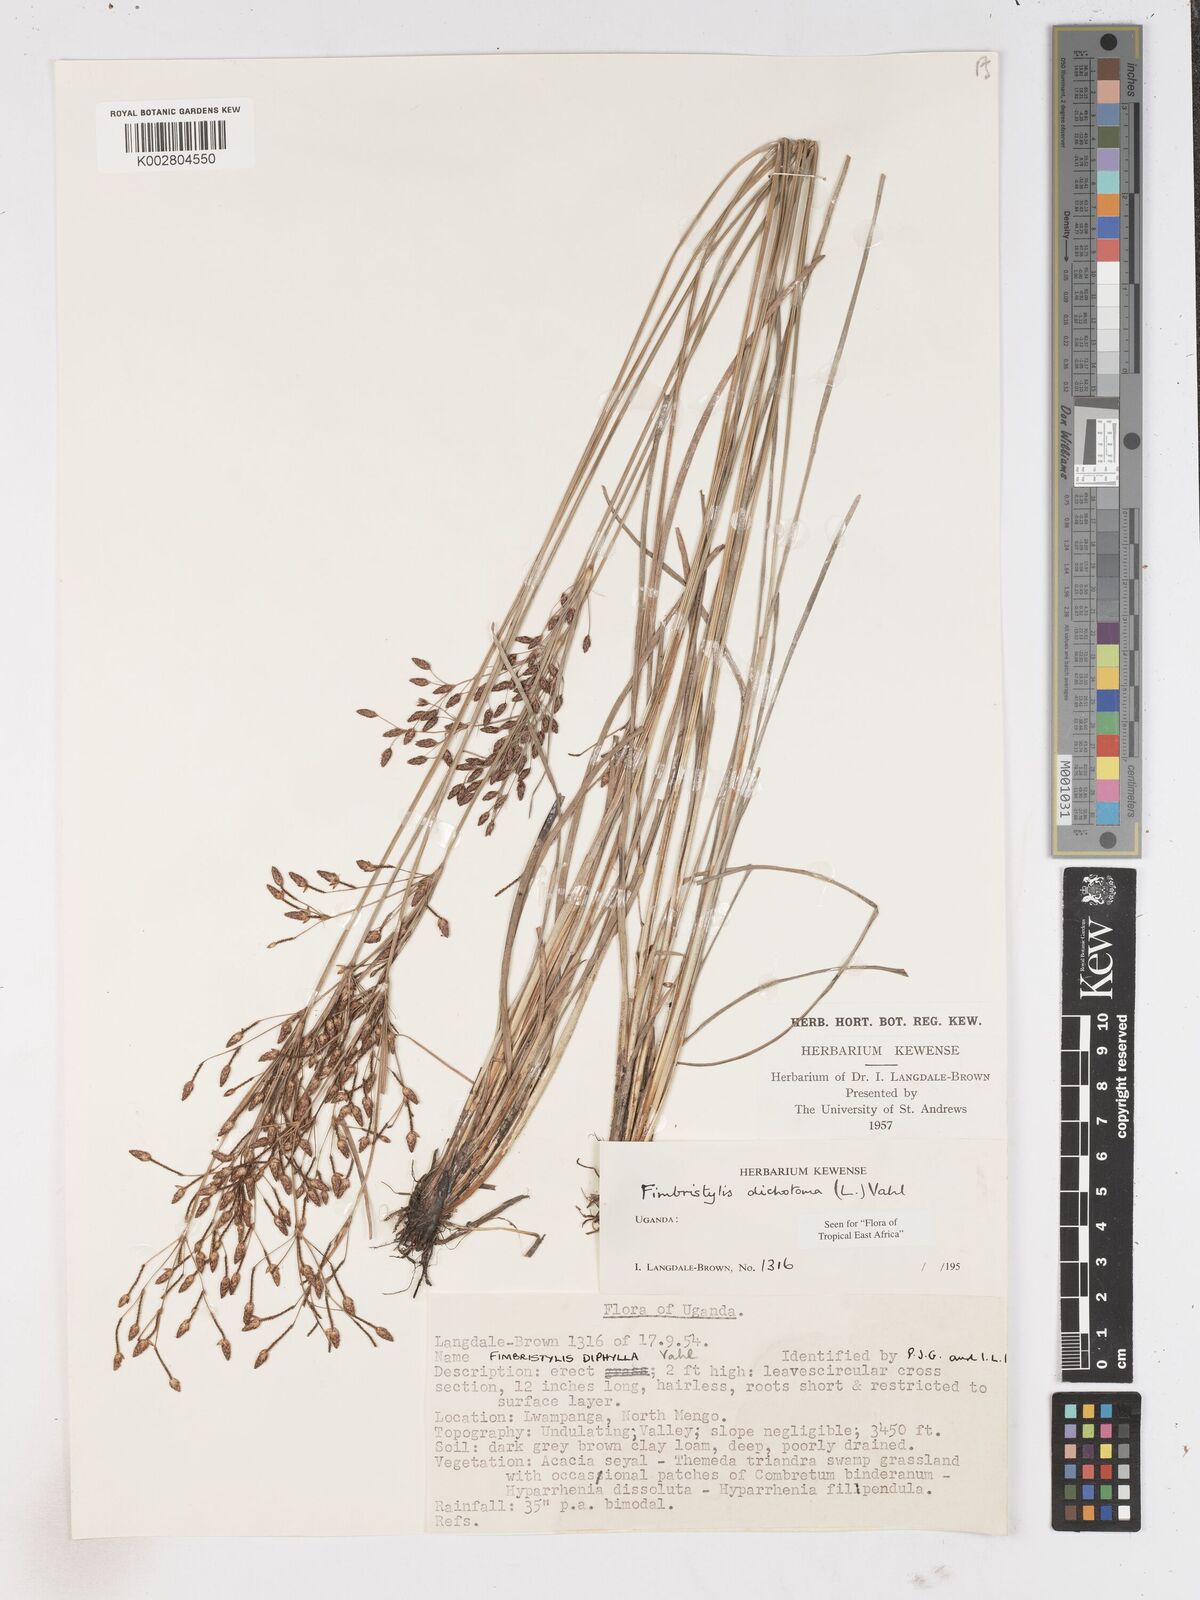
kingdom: Plantae
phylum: Tracheophyta
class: Liliopsida
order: Poales
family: Cyperaceae
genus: Fimbristylis
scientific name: Fimbristylis dichotoma
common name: Forked fimbry
